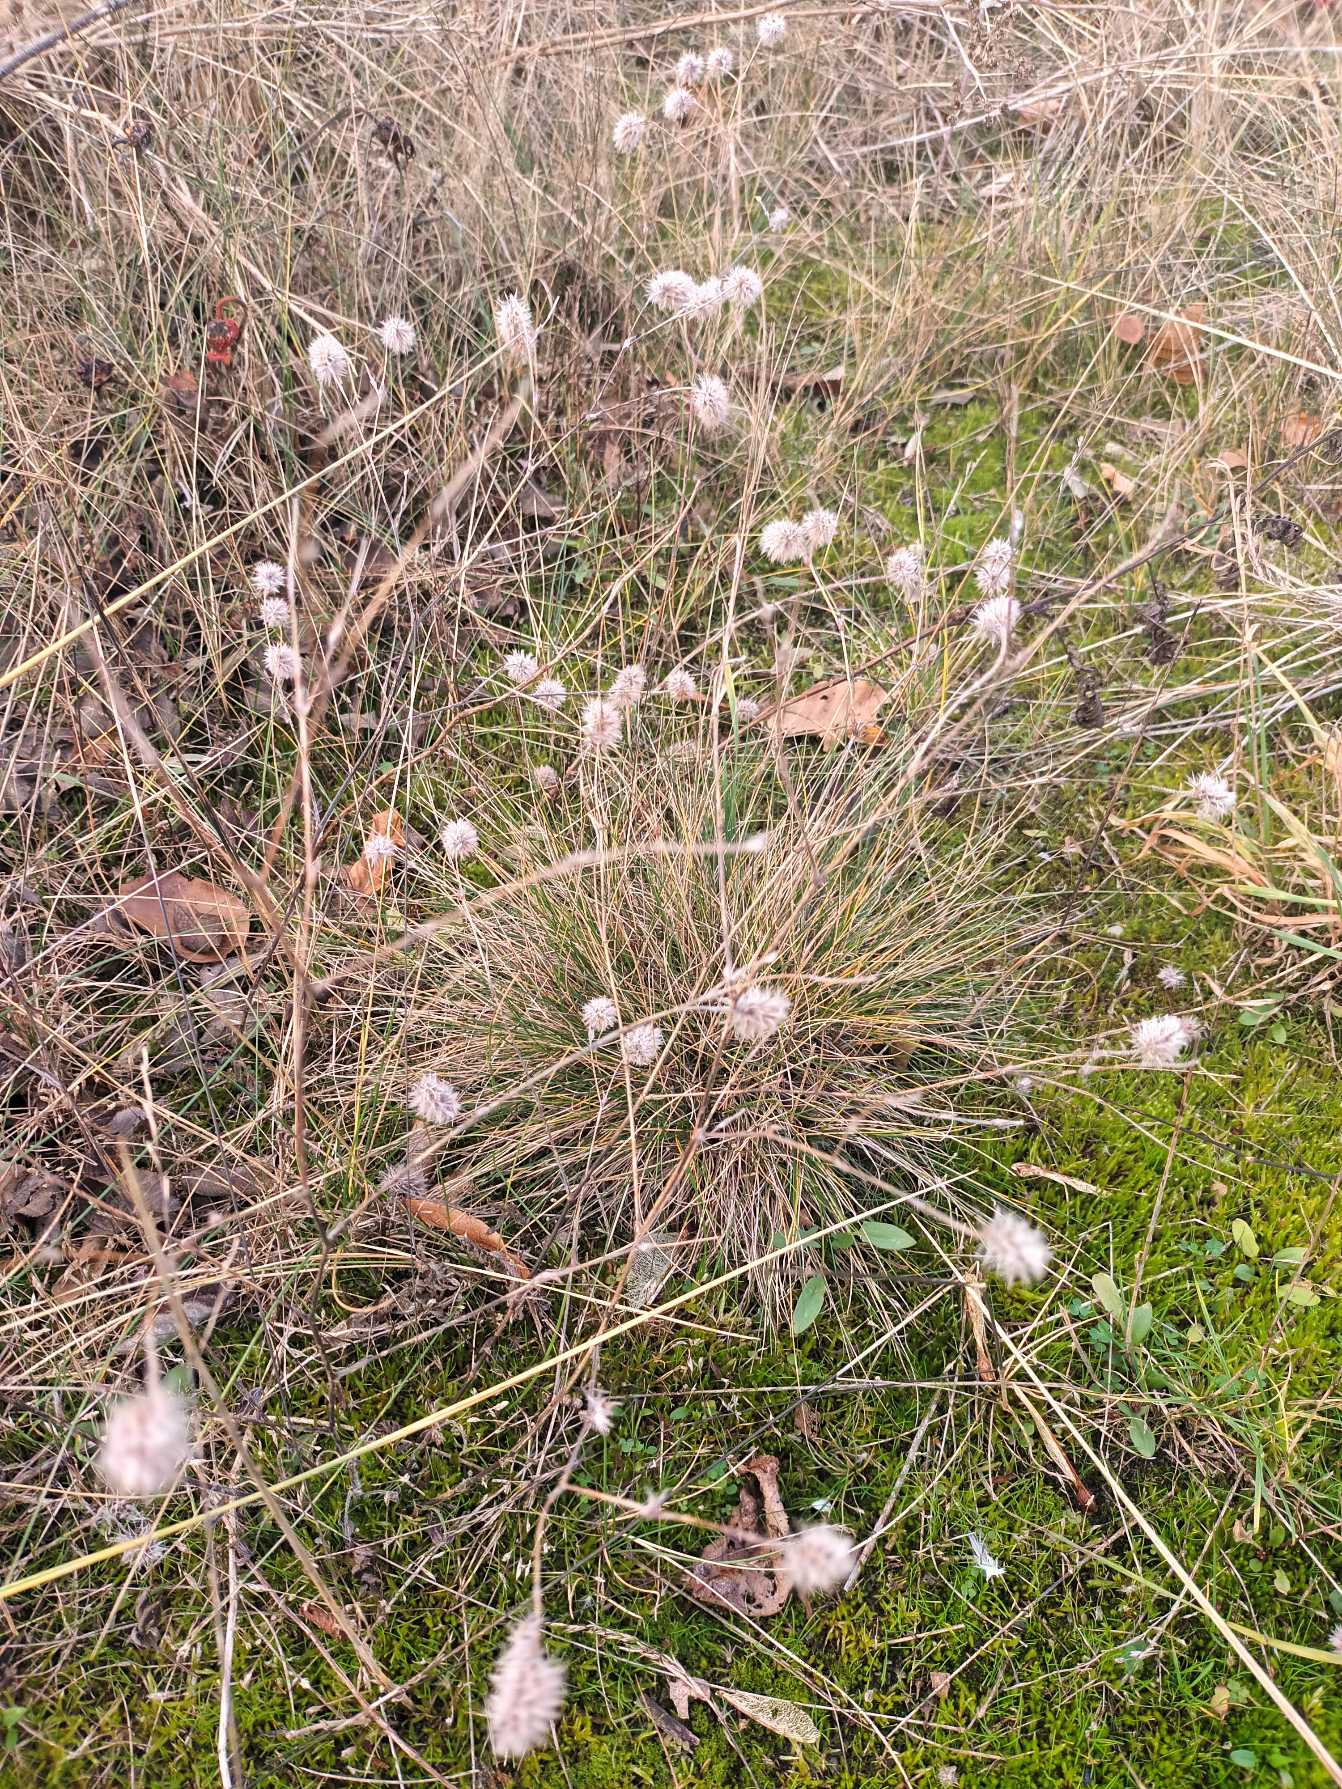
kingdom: Plantae
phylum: Tracheophyta
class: Magnoliopsida
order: Fabales
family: Fabaceae
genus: Trifolium
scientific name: Trifolium arvense
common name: Hare-kløver
